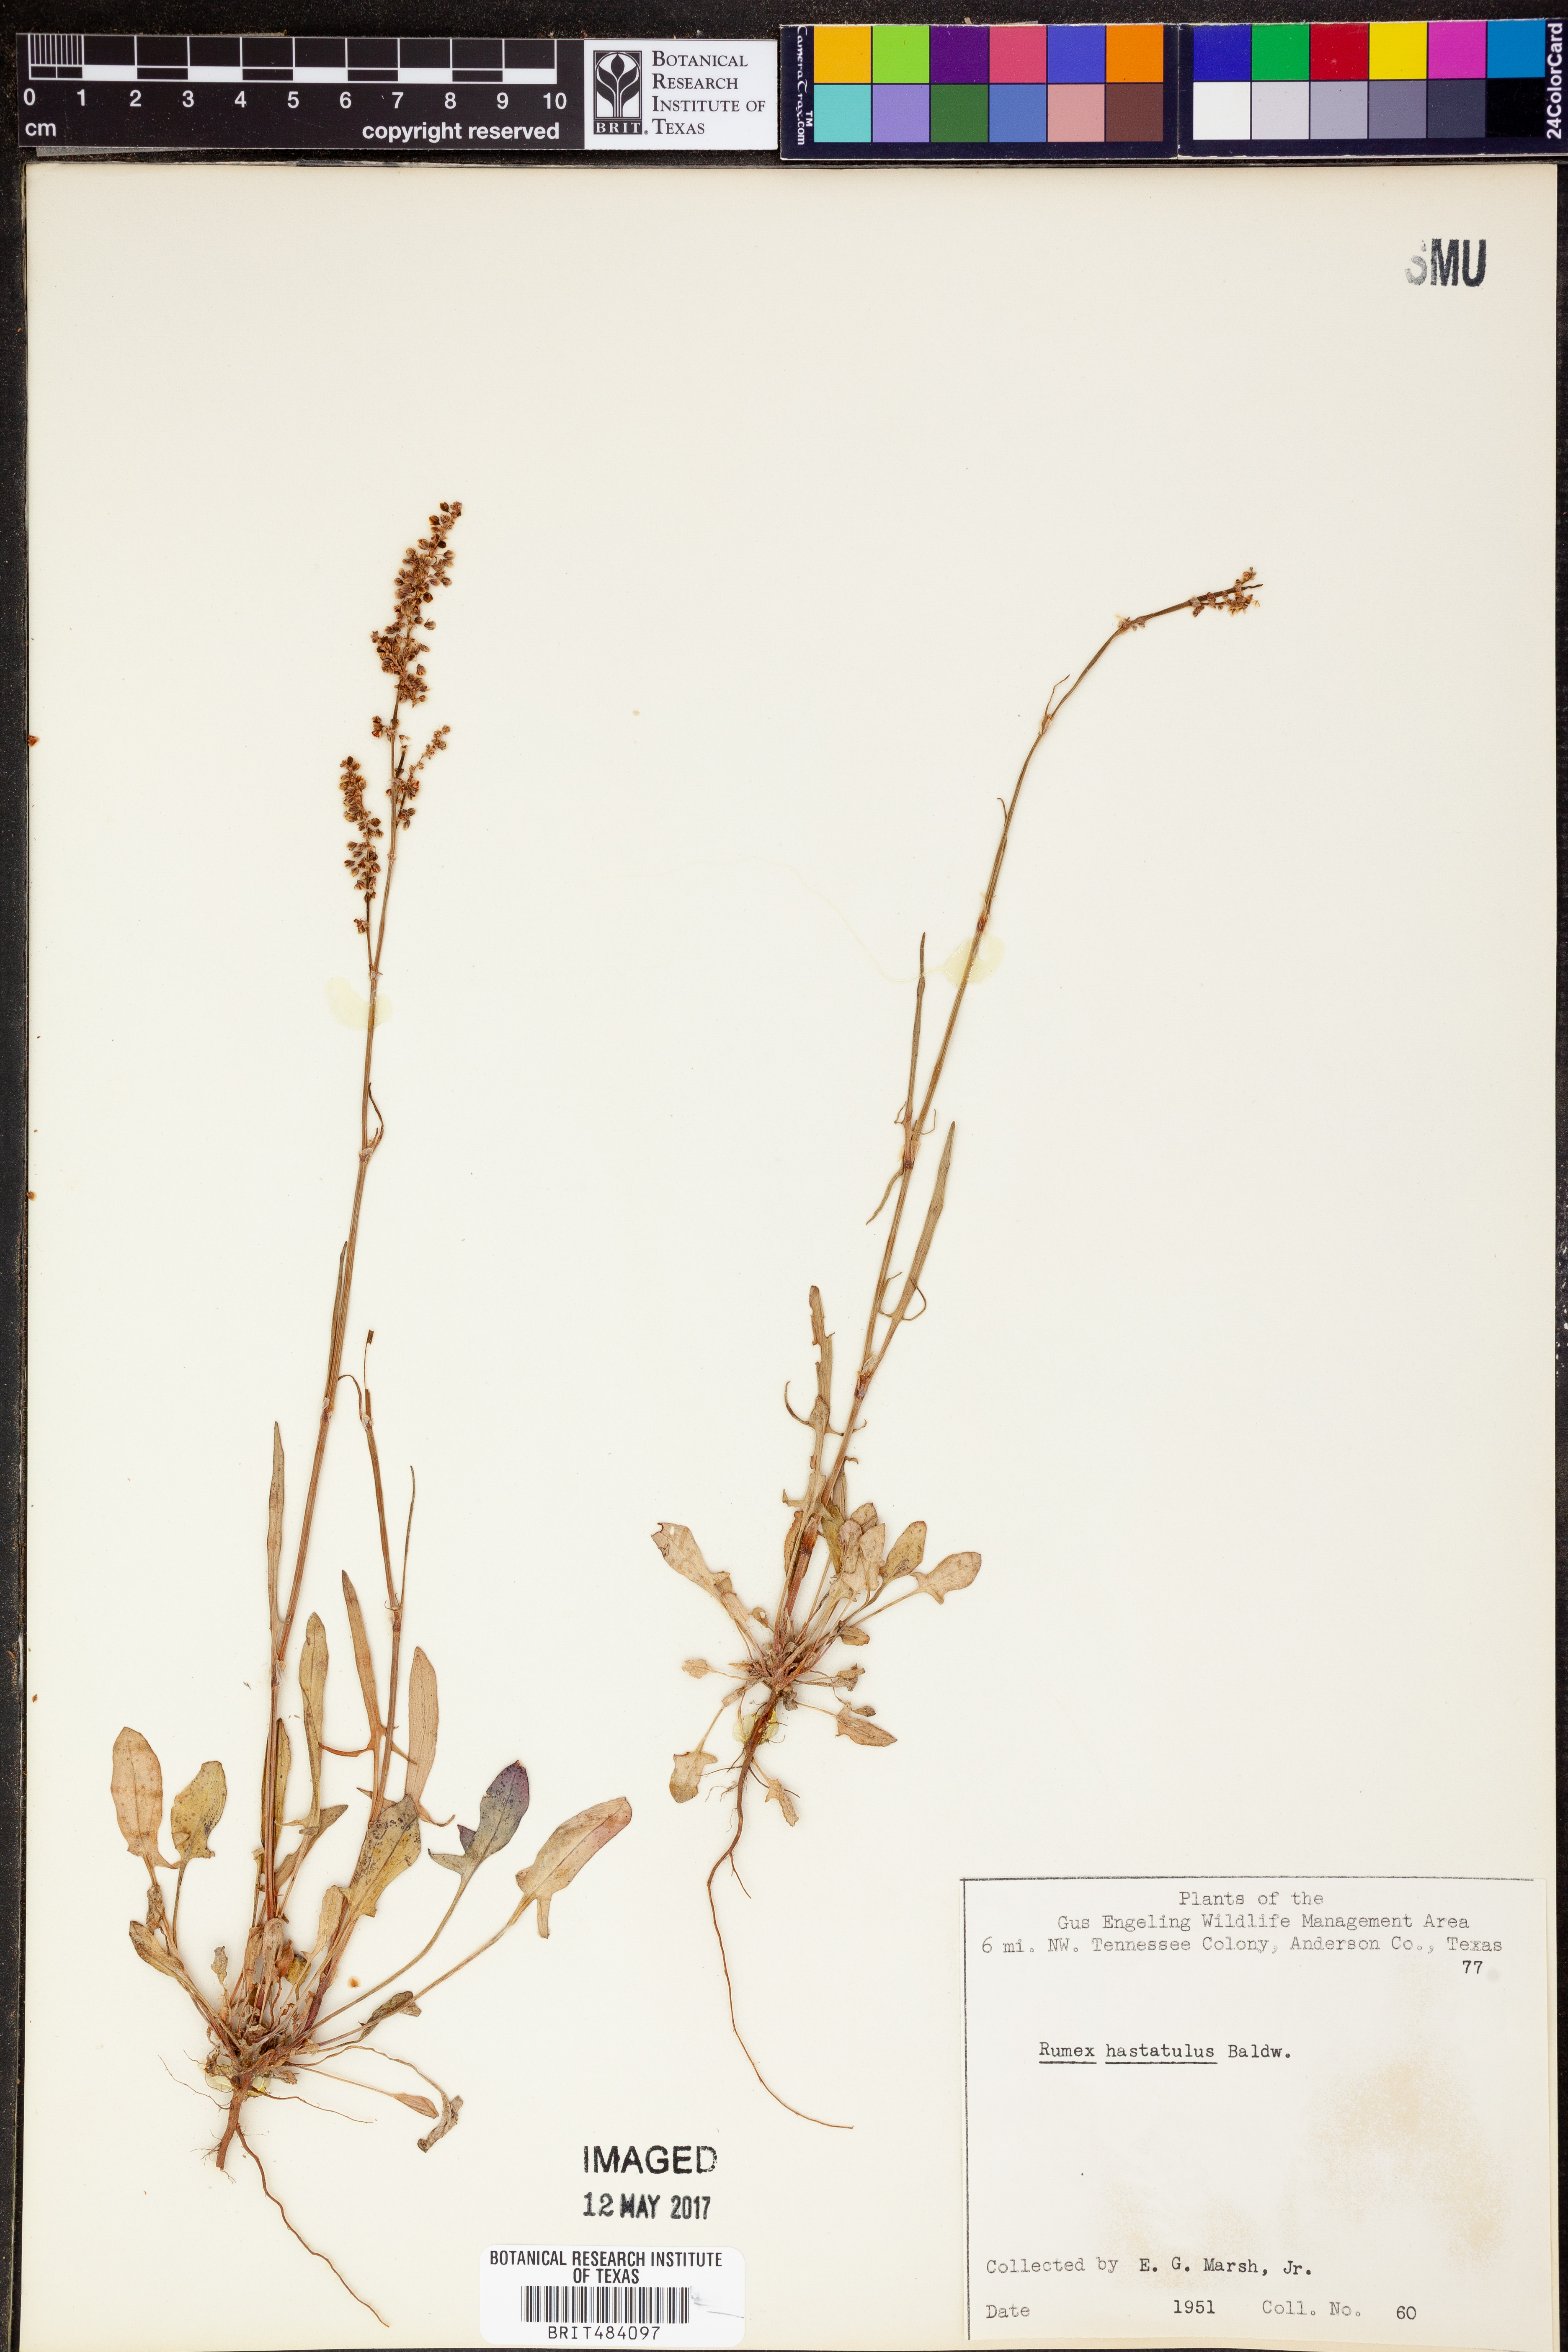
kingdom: Plantae
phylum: Tracheophyta
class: Magnoliopsida
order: Caryophyllales
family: Polygonaceae
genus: Rumex
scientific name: Rumex hastatulus
